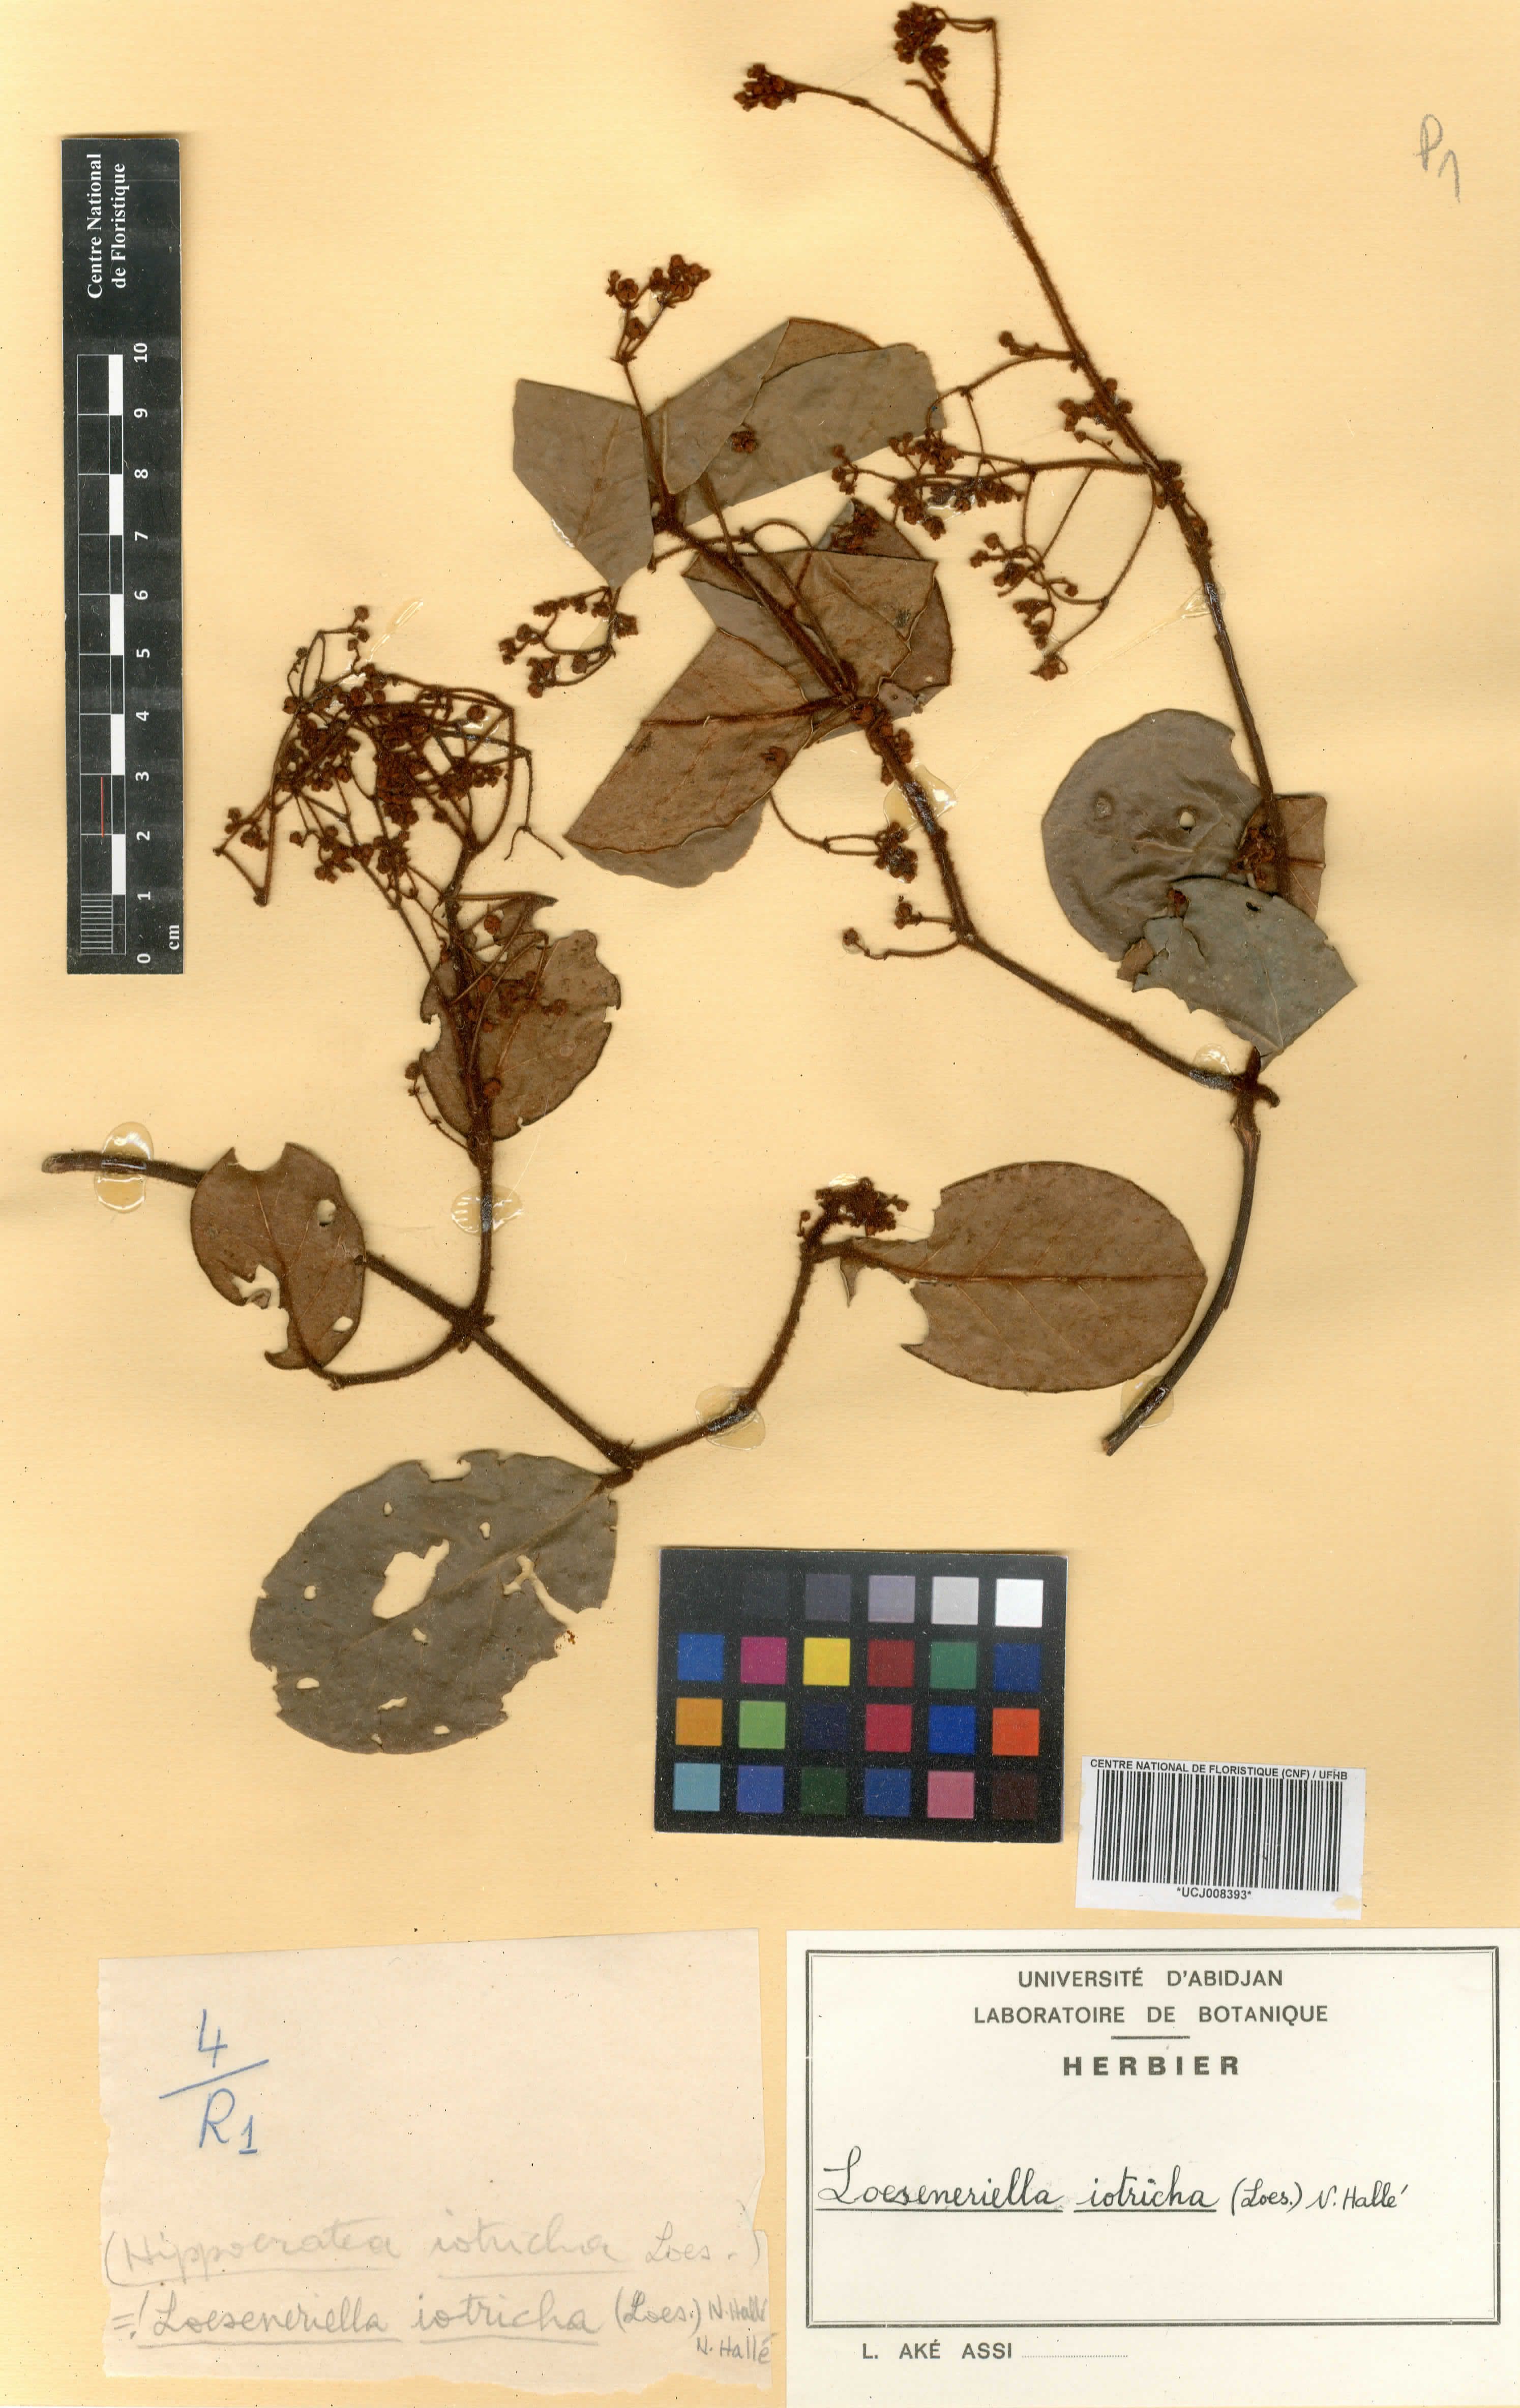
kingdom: Plantae
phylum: Tracheophyta
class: Magnoliopsida
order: Celastrales
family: Celastraceae
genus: Loeseneriella
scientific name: Loeseneriella iotricha
